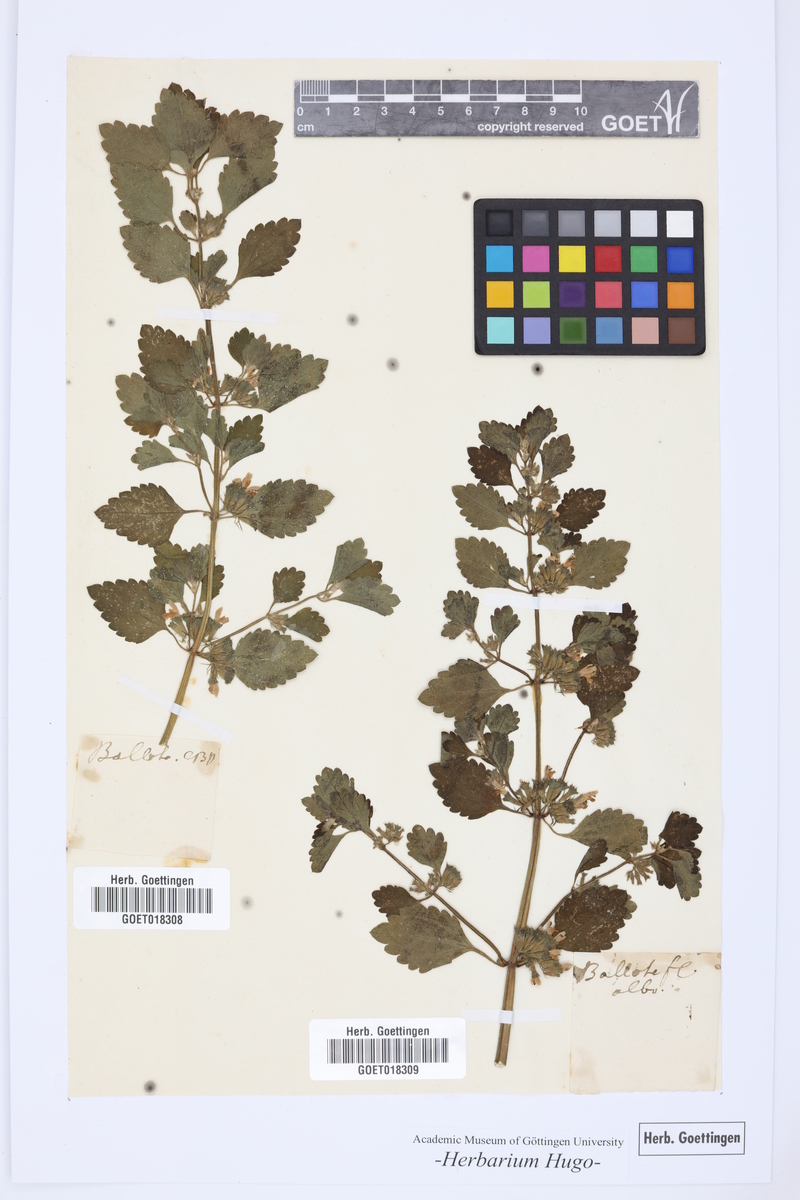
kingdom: Plantae
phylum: Tracheophyta
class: Magnoliopsida
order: Lamiales
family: Lamiaceae
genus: Ballota
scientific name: Ballota nigra
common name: Black horehound
